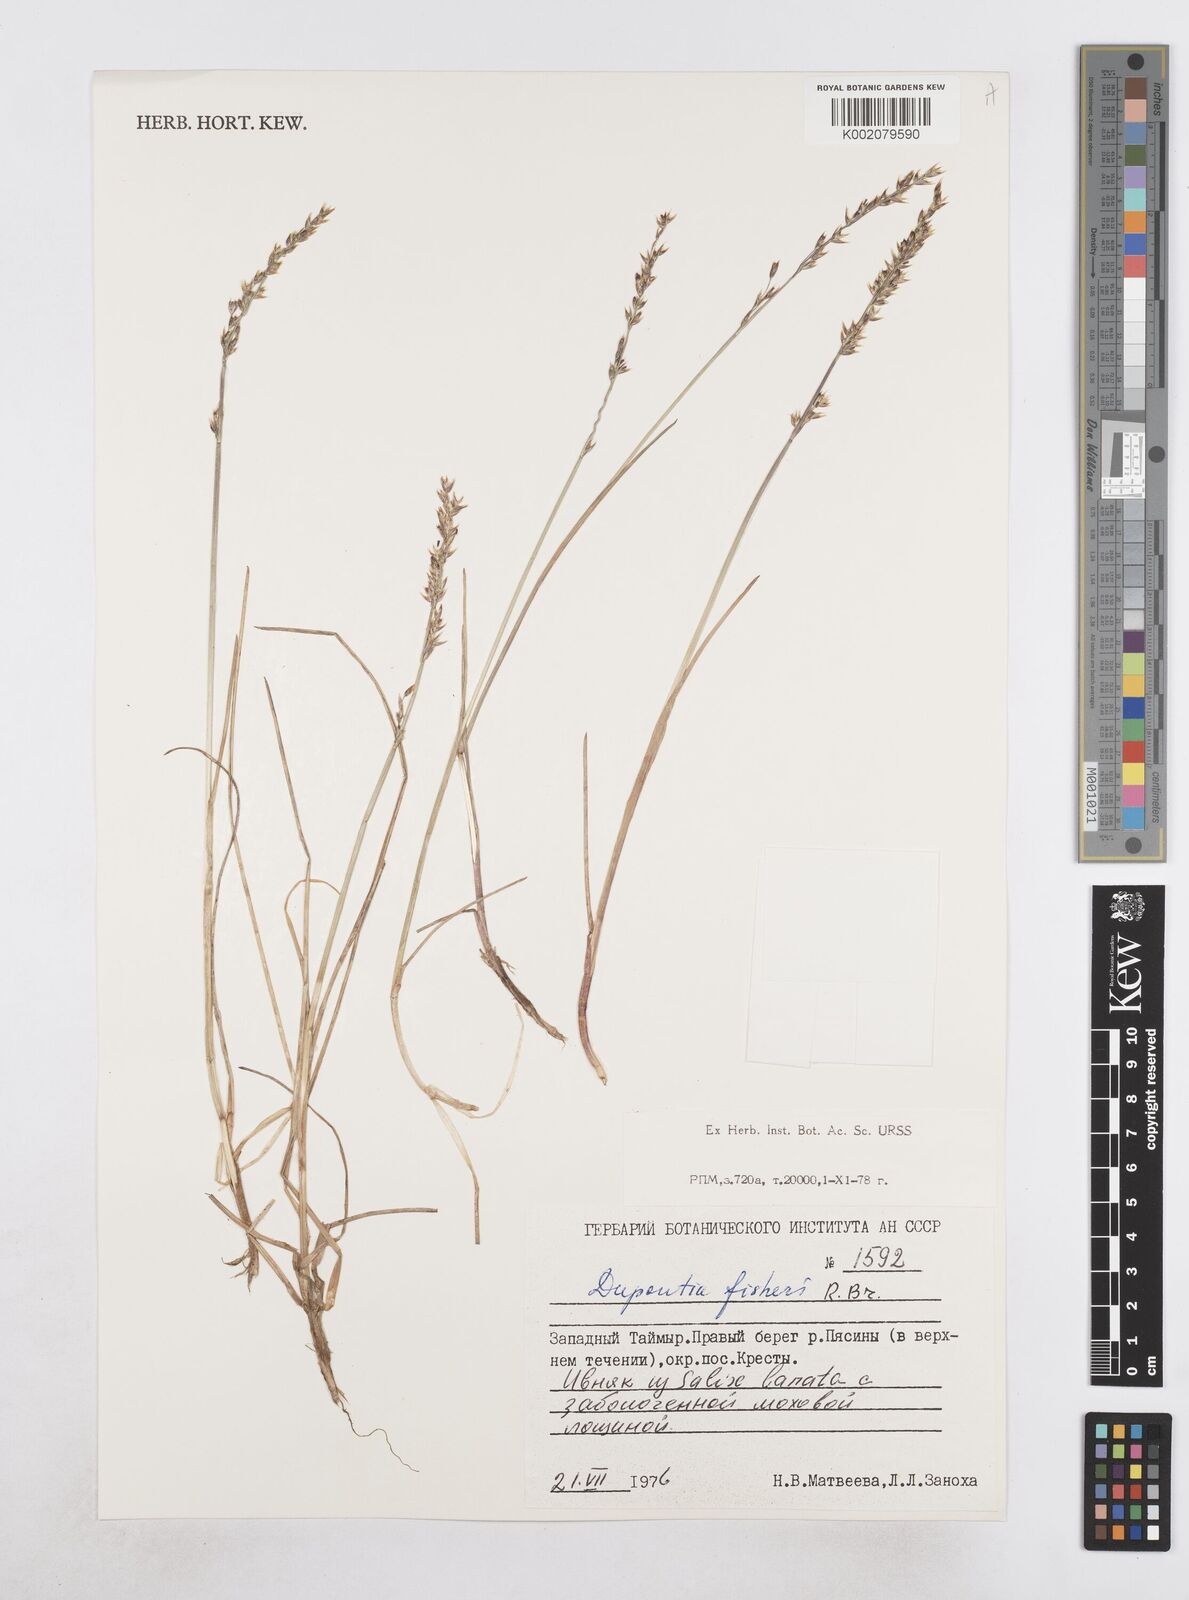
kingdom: Plantae
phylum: Tracheophyta
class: Liliopsida
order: Poales
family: Poaceae
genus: Dupontia
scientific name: Dupontia fisheri
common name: Tundra grass
